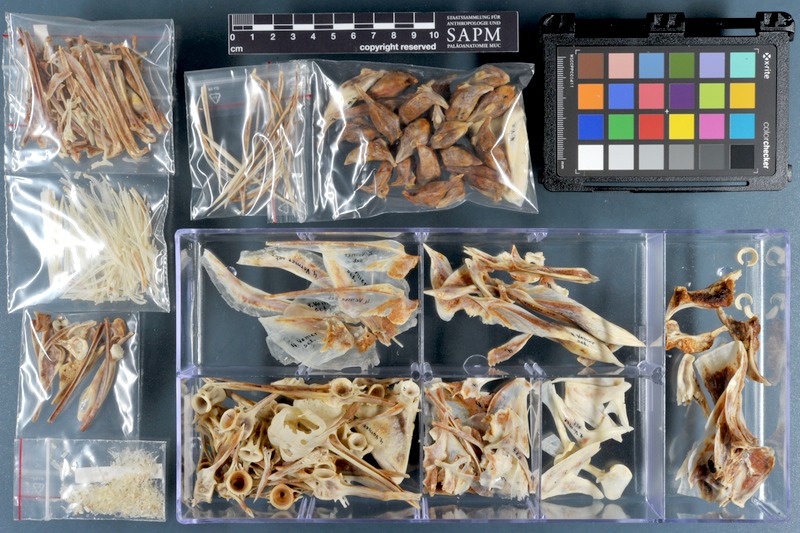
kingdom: Animalia
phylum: Chordata
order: Perciformes
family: Carangidae
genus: Selene
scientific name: Selene setapinnis
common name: Moonfish
